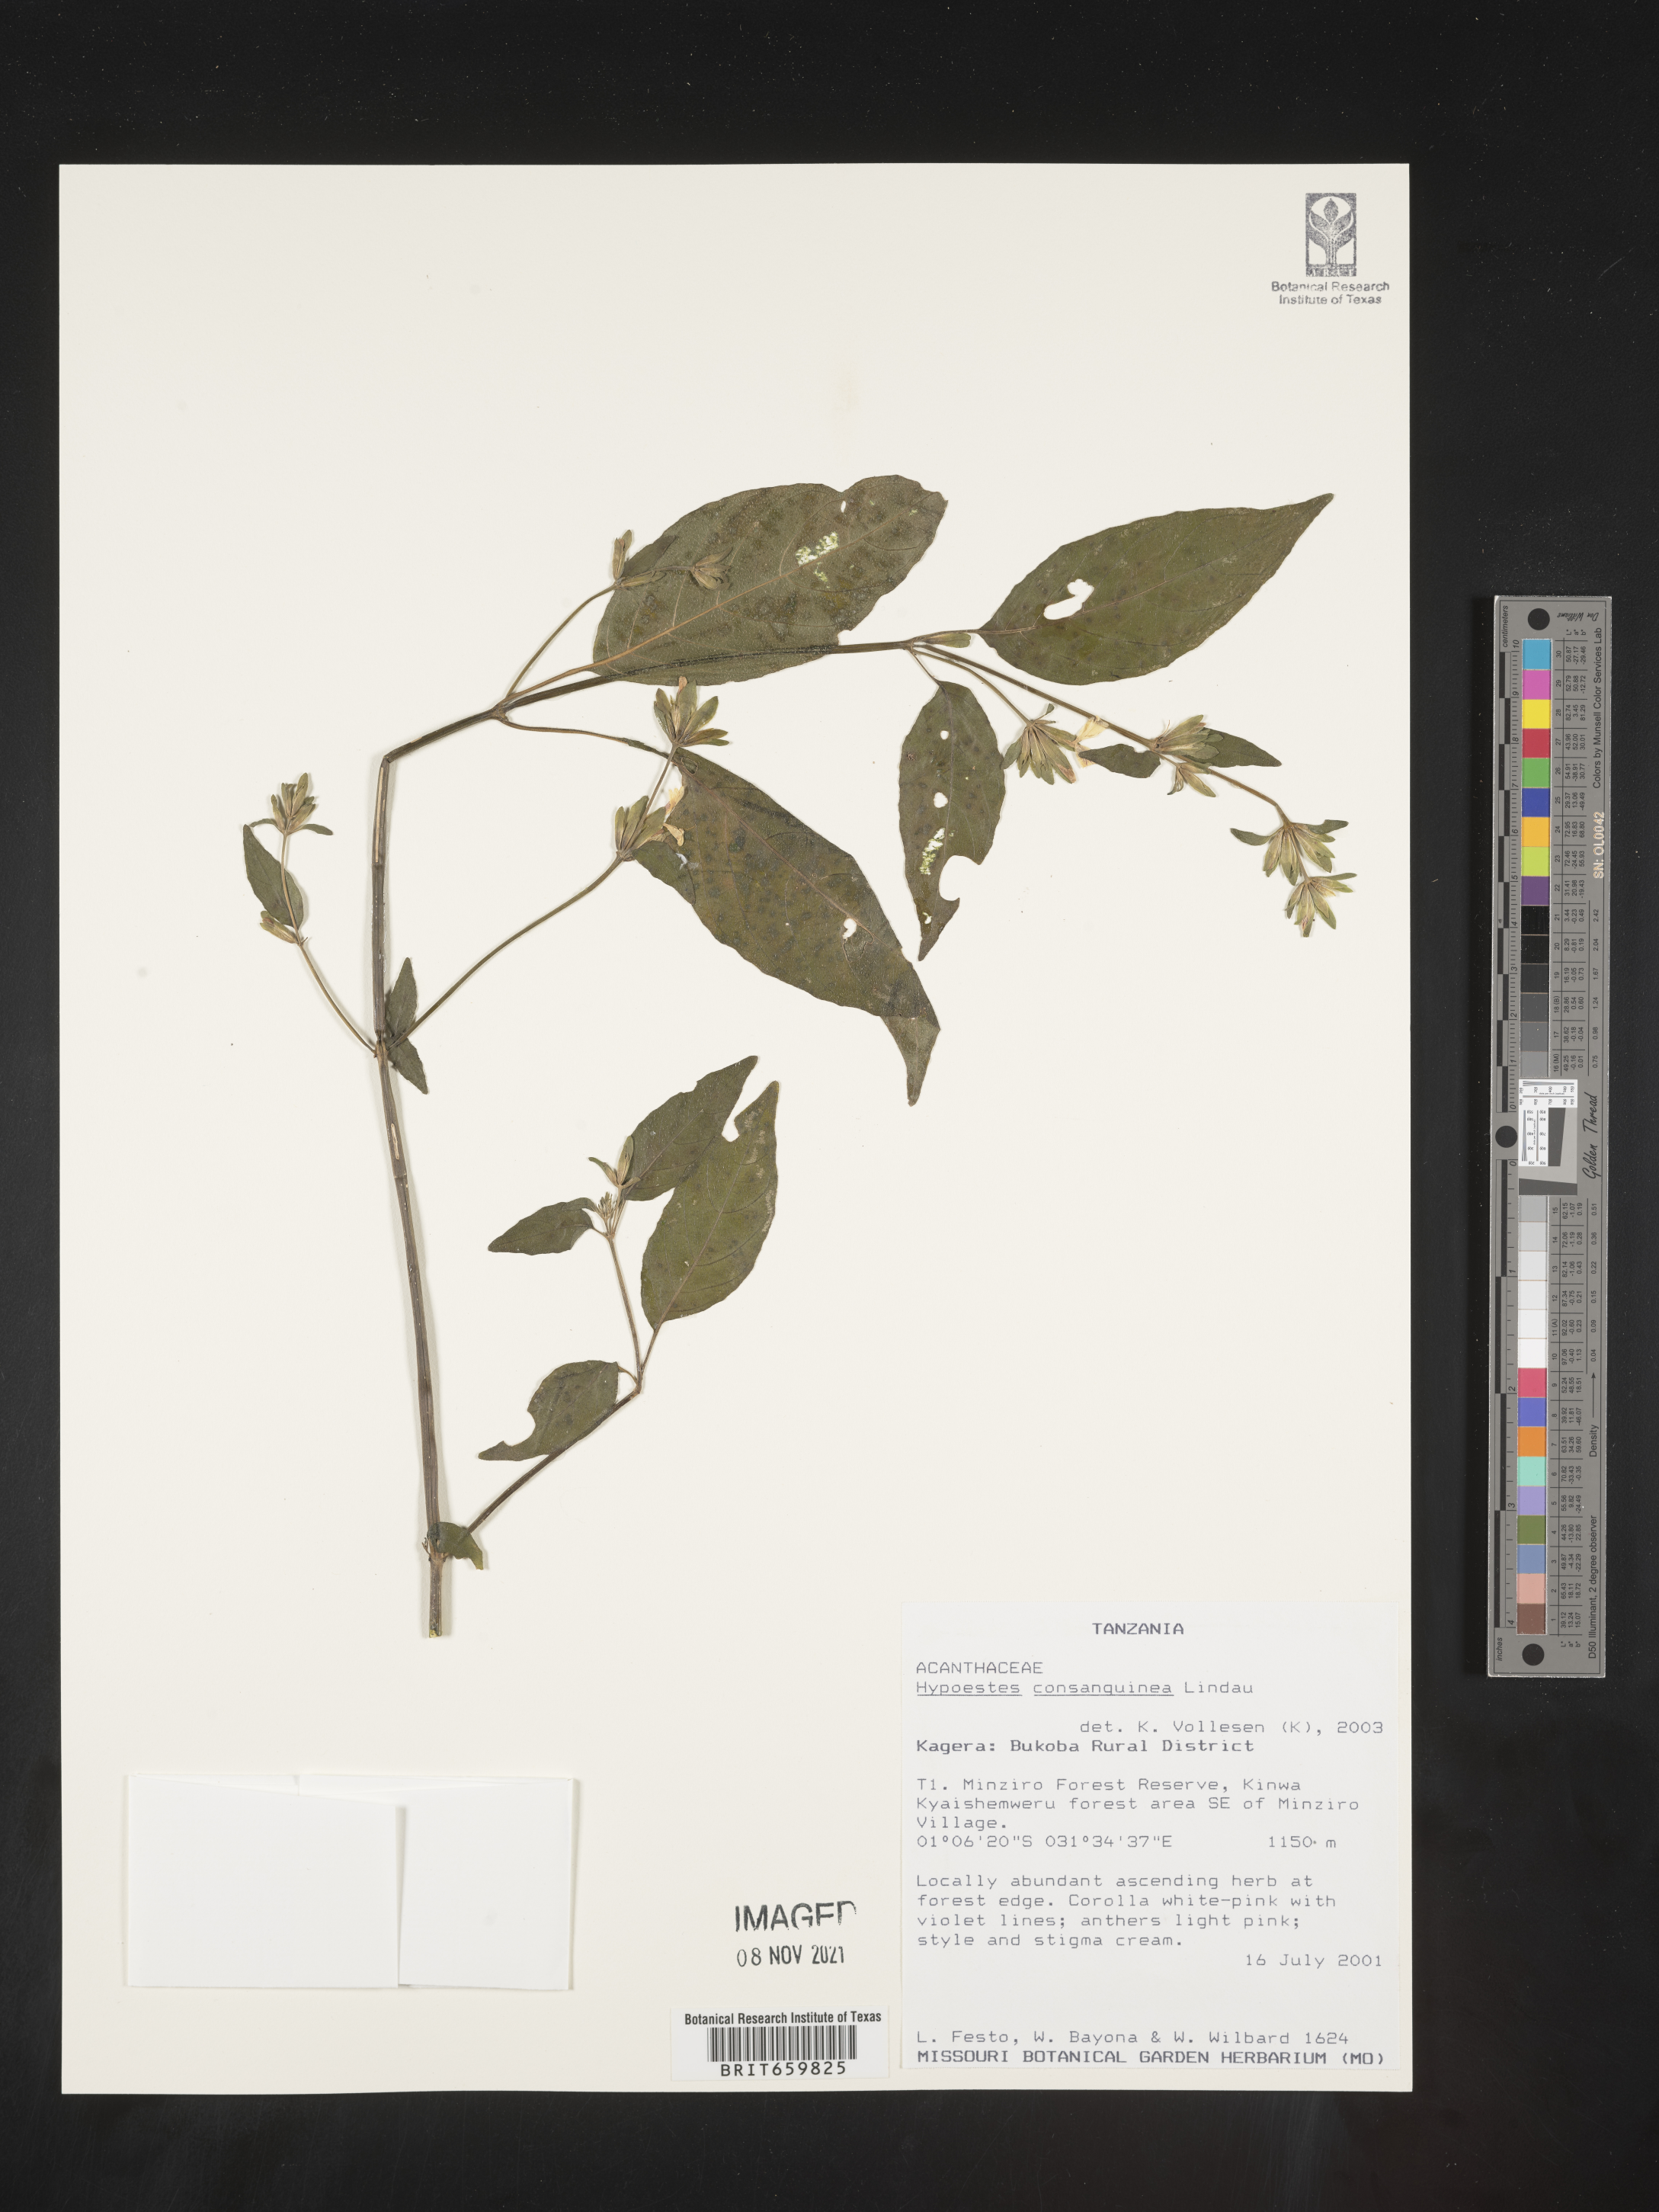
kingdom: Plantae
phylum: Tracheophyta
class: Magnoliopsida
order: Lamiales
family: Acanthaceae
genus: Hypoestes
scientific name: Hypoestes triflora
